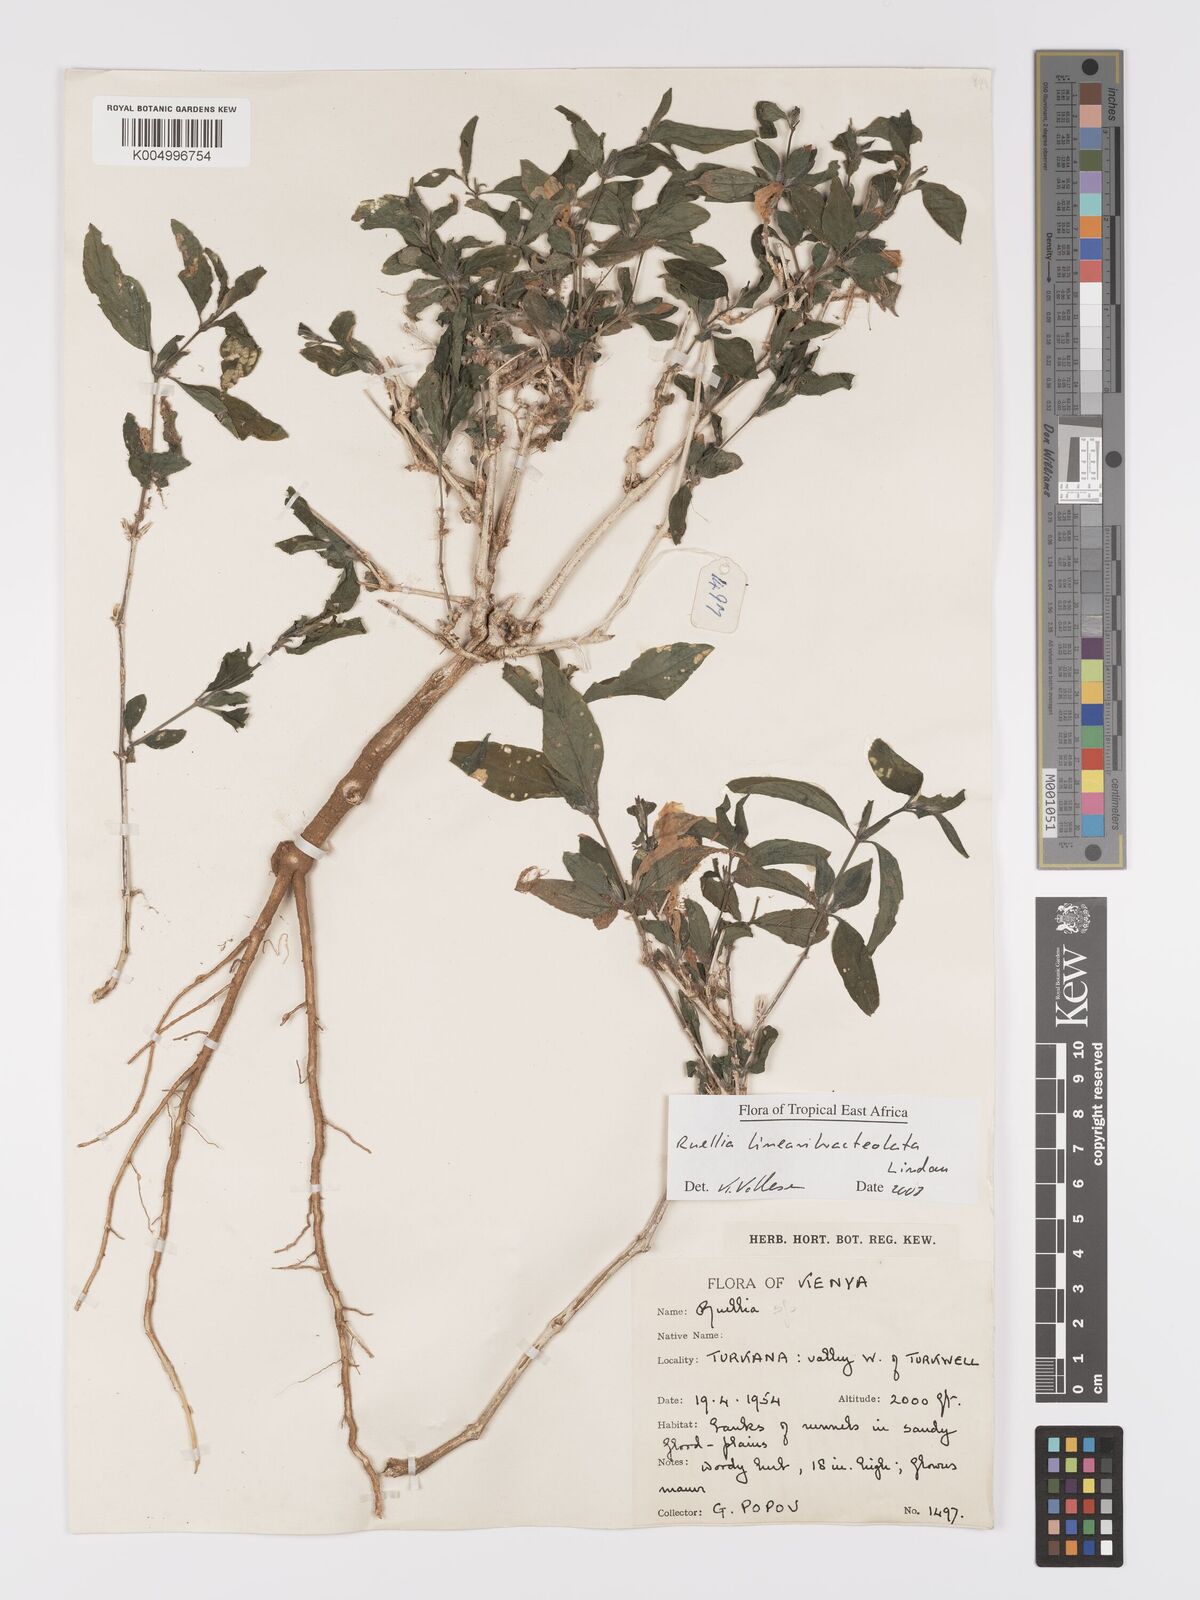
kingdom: Plantae
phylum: Tracheophyta
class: Magnoliopsida
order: Lamiales
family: Acanthaceae
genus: Ruellia
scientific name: Ruellia linearibracteolata
